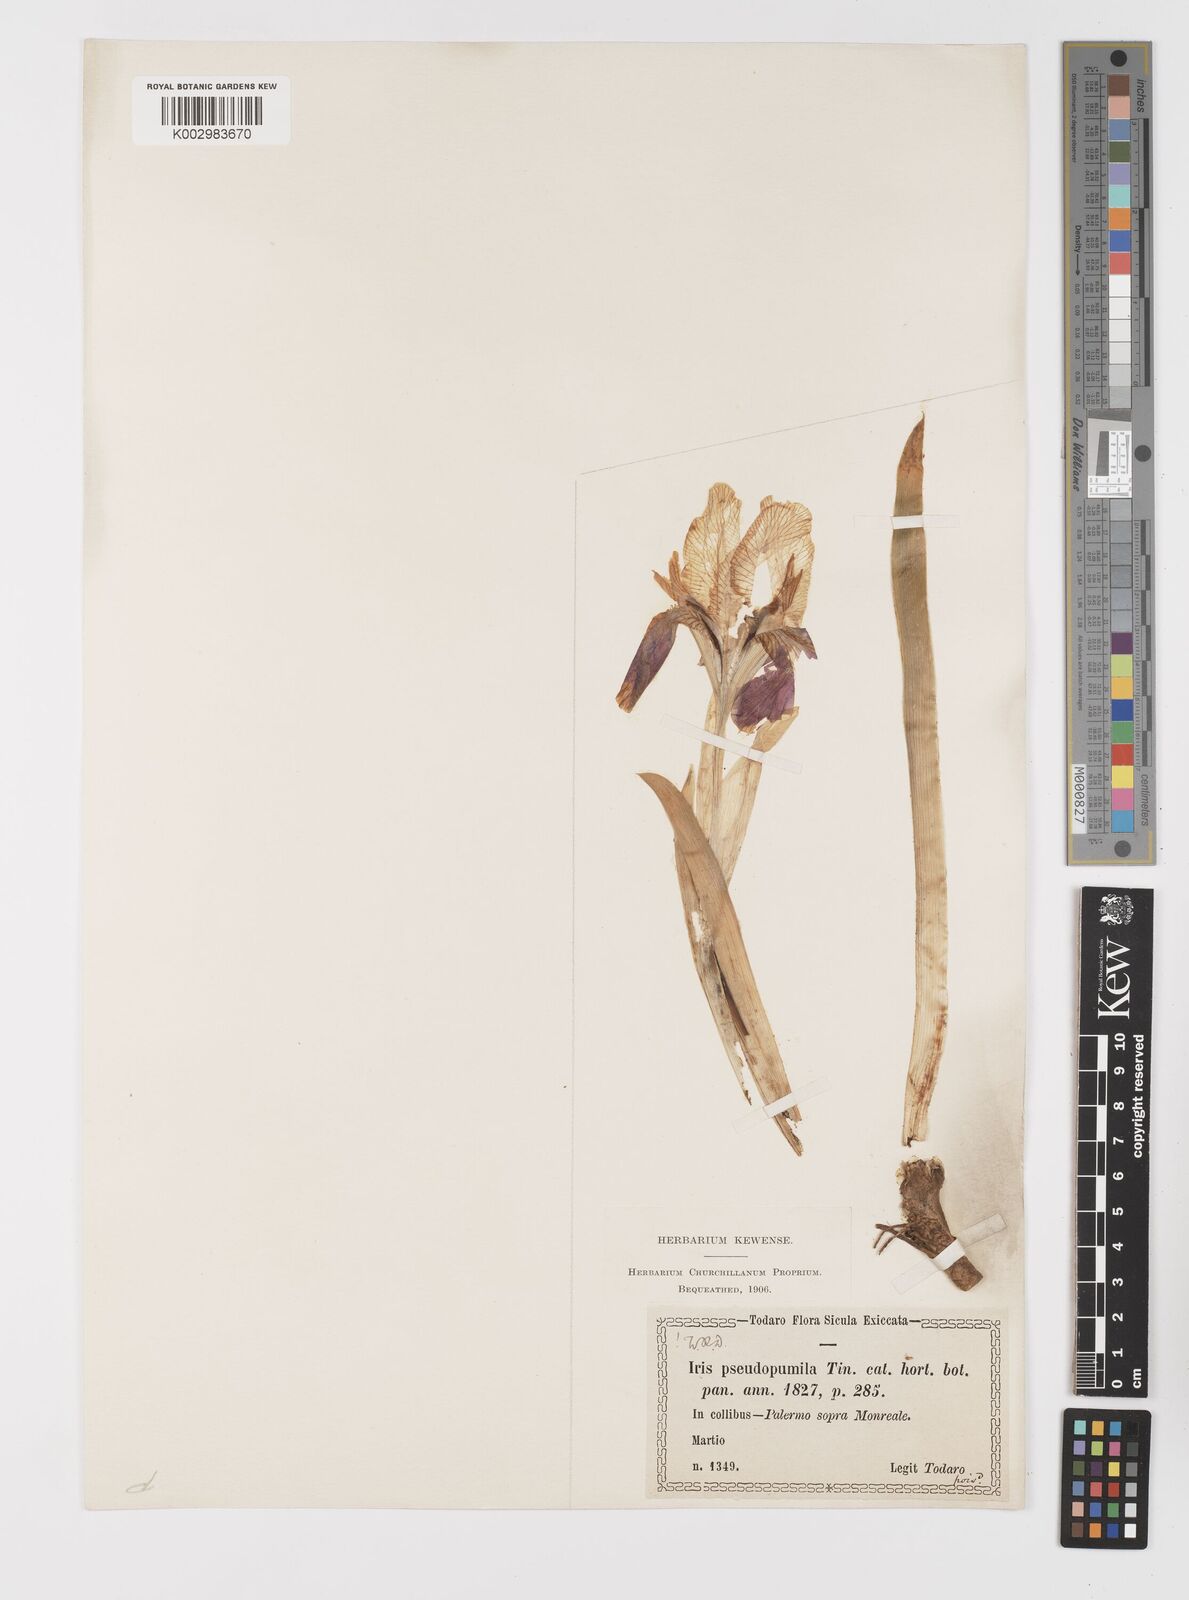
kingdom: Plantae
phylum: Tracheophyta
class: Liliopsida
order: Asparagales
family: Iridaceae
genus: Iris
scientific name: Iris pseudopumila
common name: Southern dwarf iris
